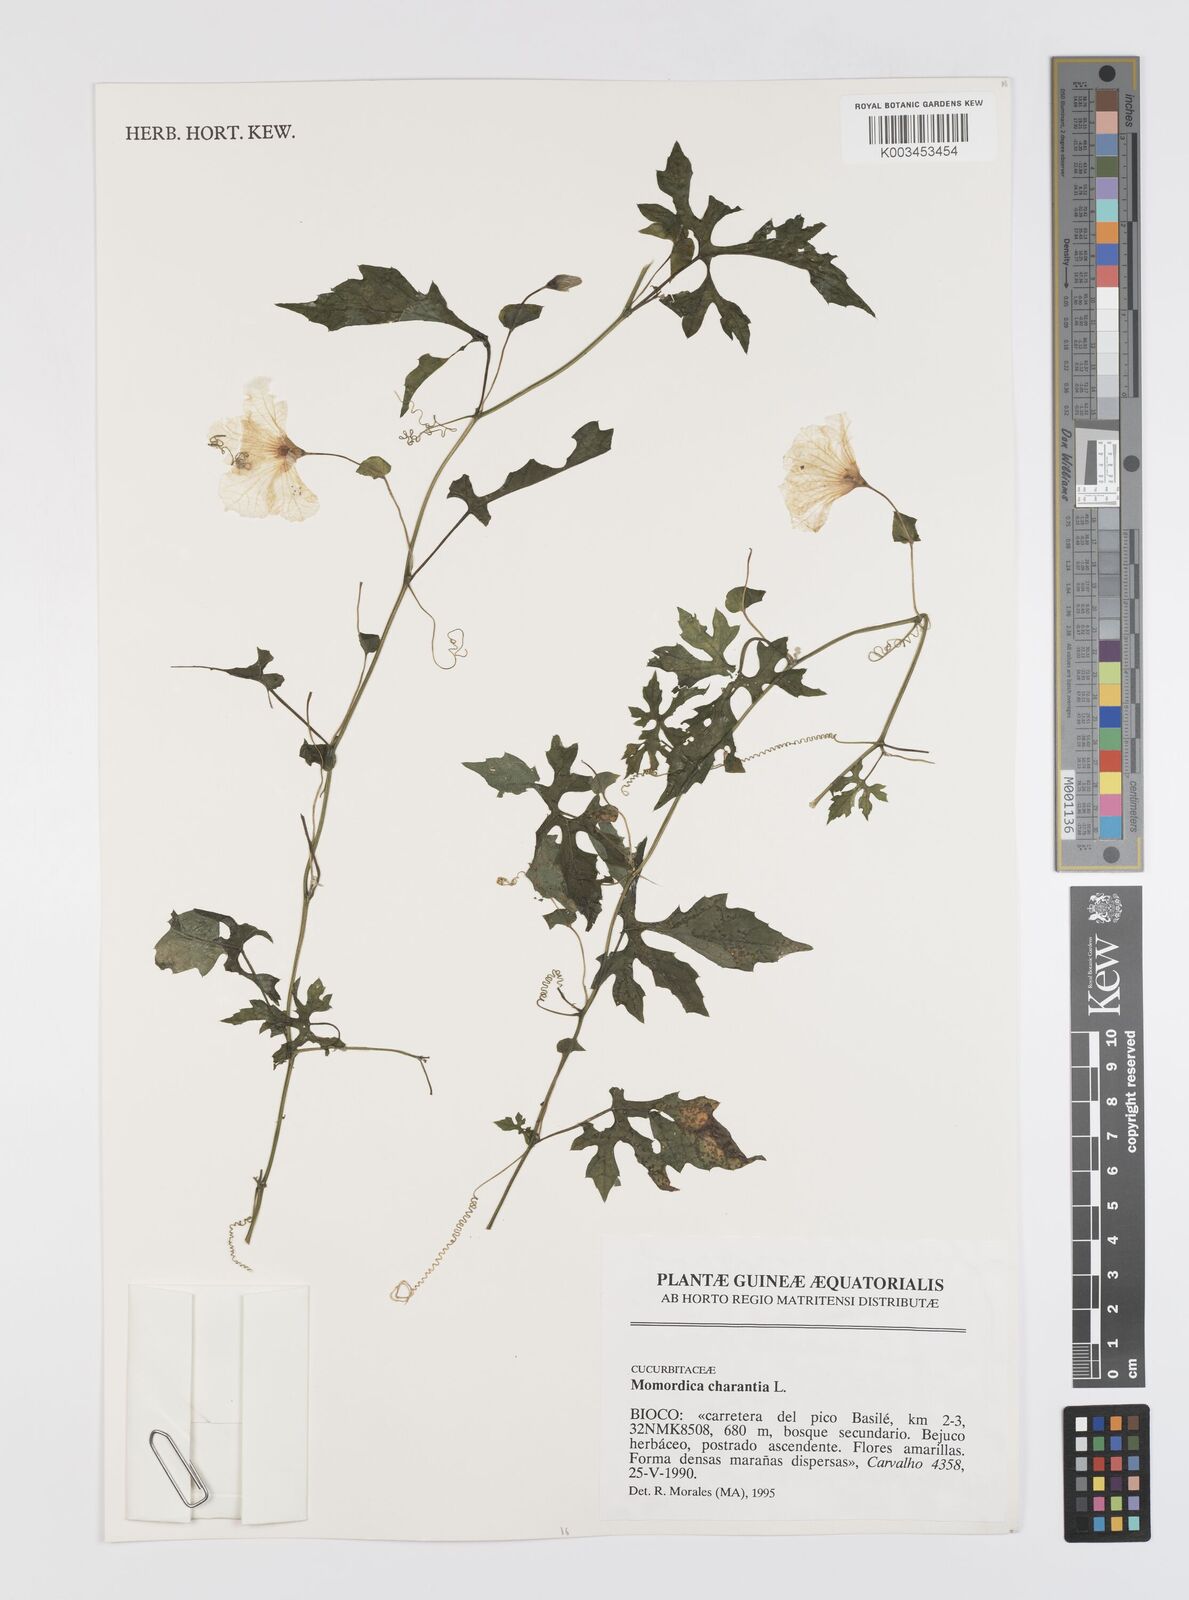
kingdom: Plantae
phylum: Tracheophyta
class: Magnoliopsida
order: Cucurbitales
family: Cucurbitaceae
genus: Momordica
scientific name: Momordica charantia
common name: Balsampear
